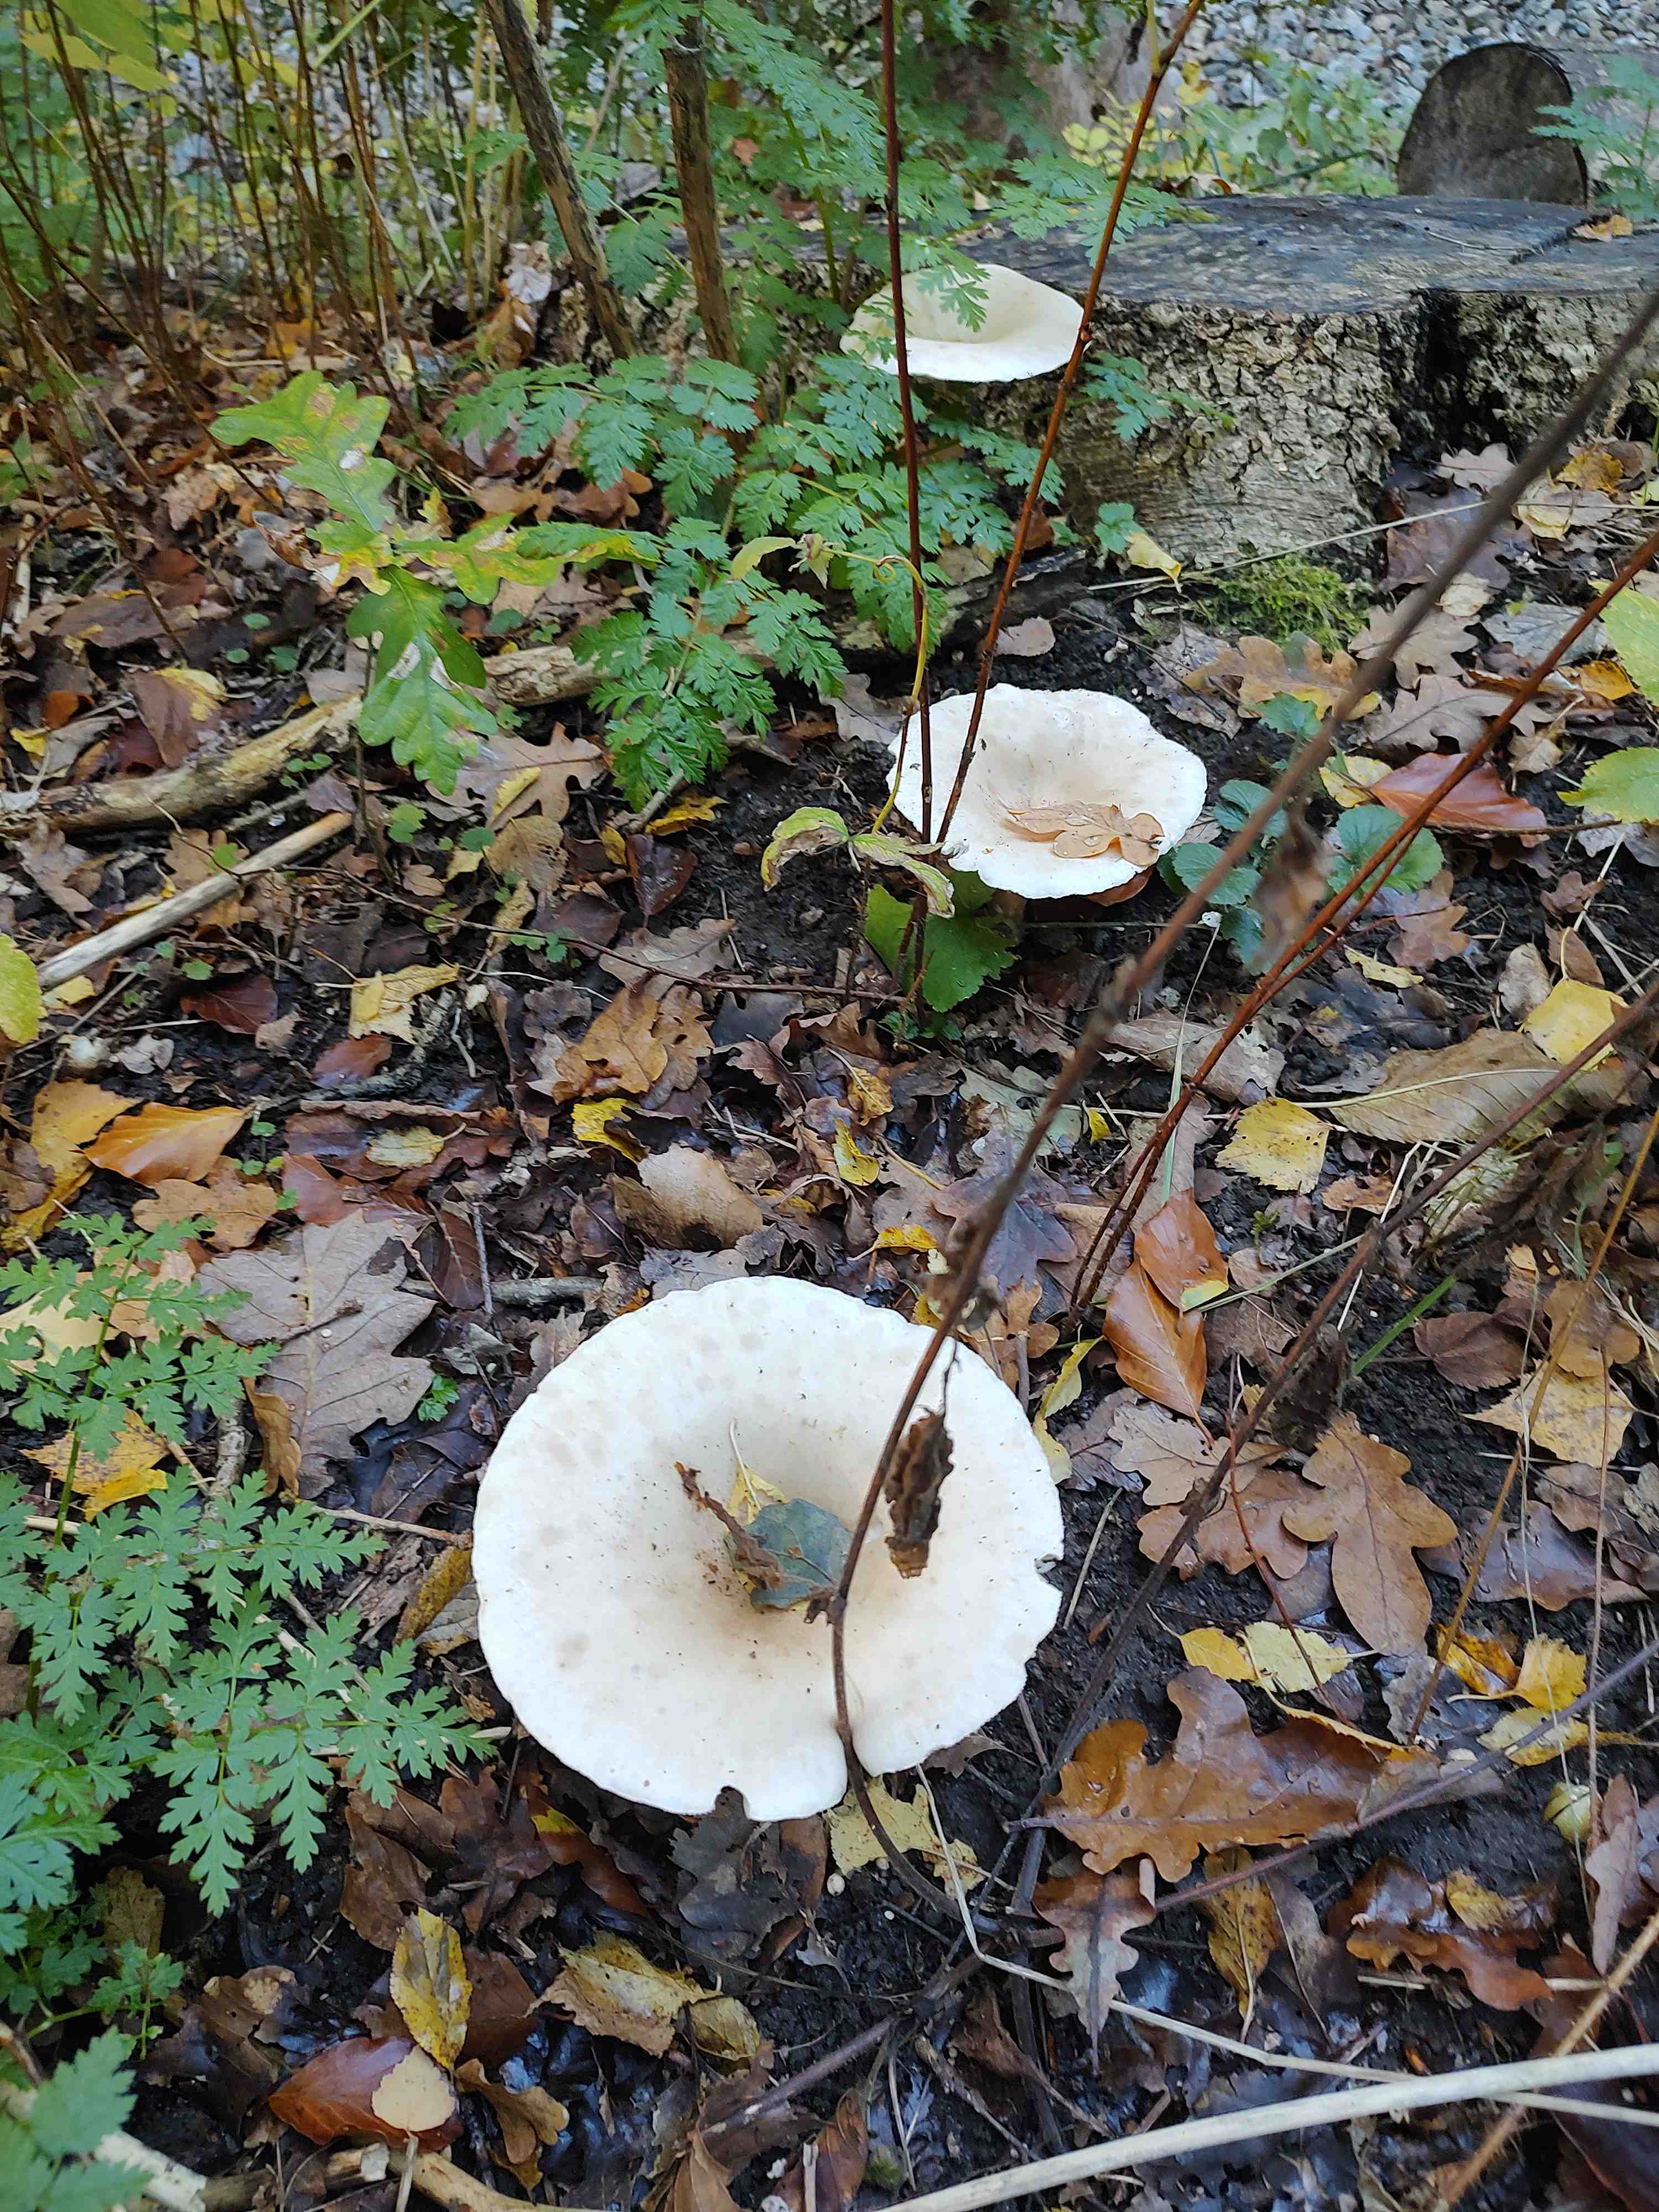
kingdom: Fungi
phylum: Basidiomycota
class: Agaricomycetes
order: Agaricales
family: Tricholomataceae
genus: Infundibulicybe
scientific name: Infundibulicybe geotropa
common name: stor tragthat
